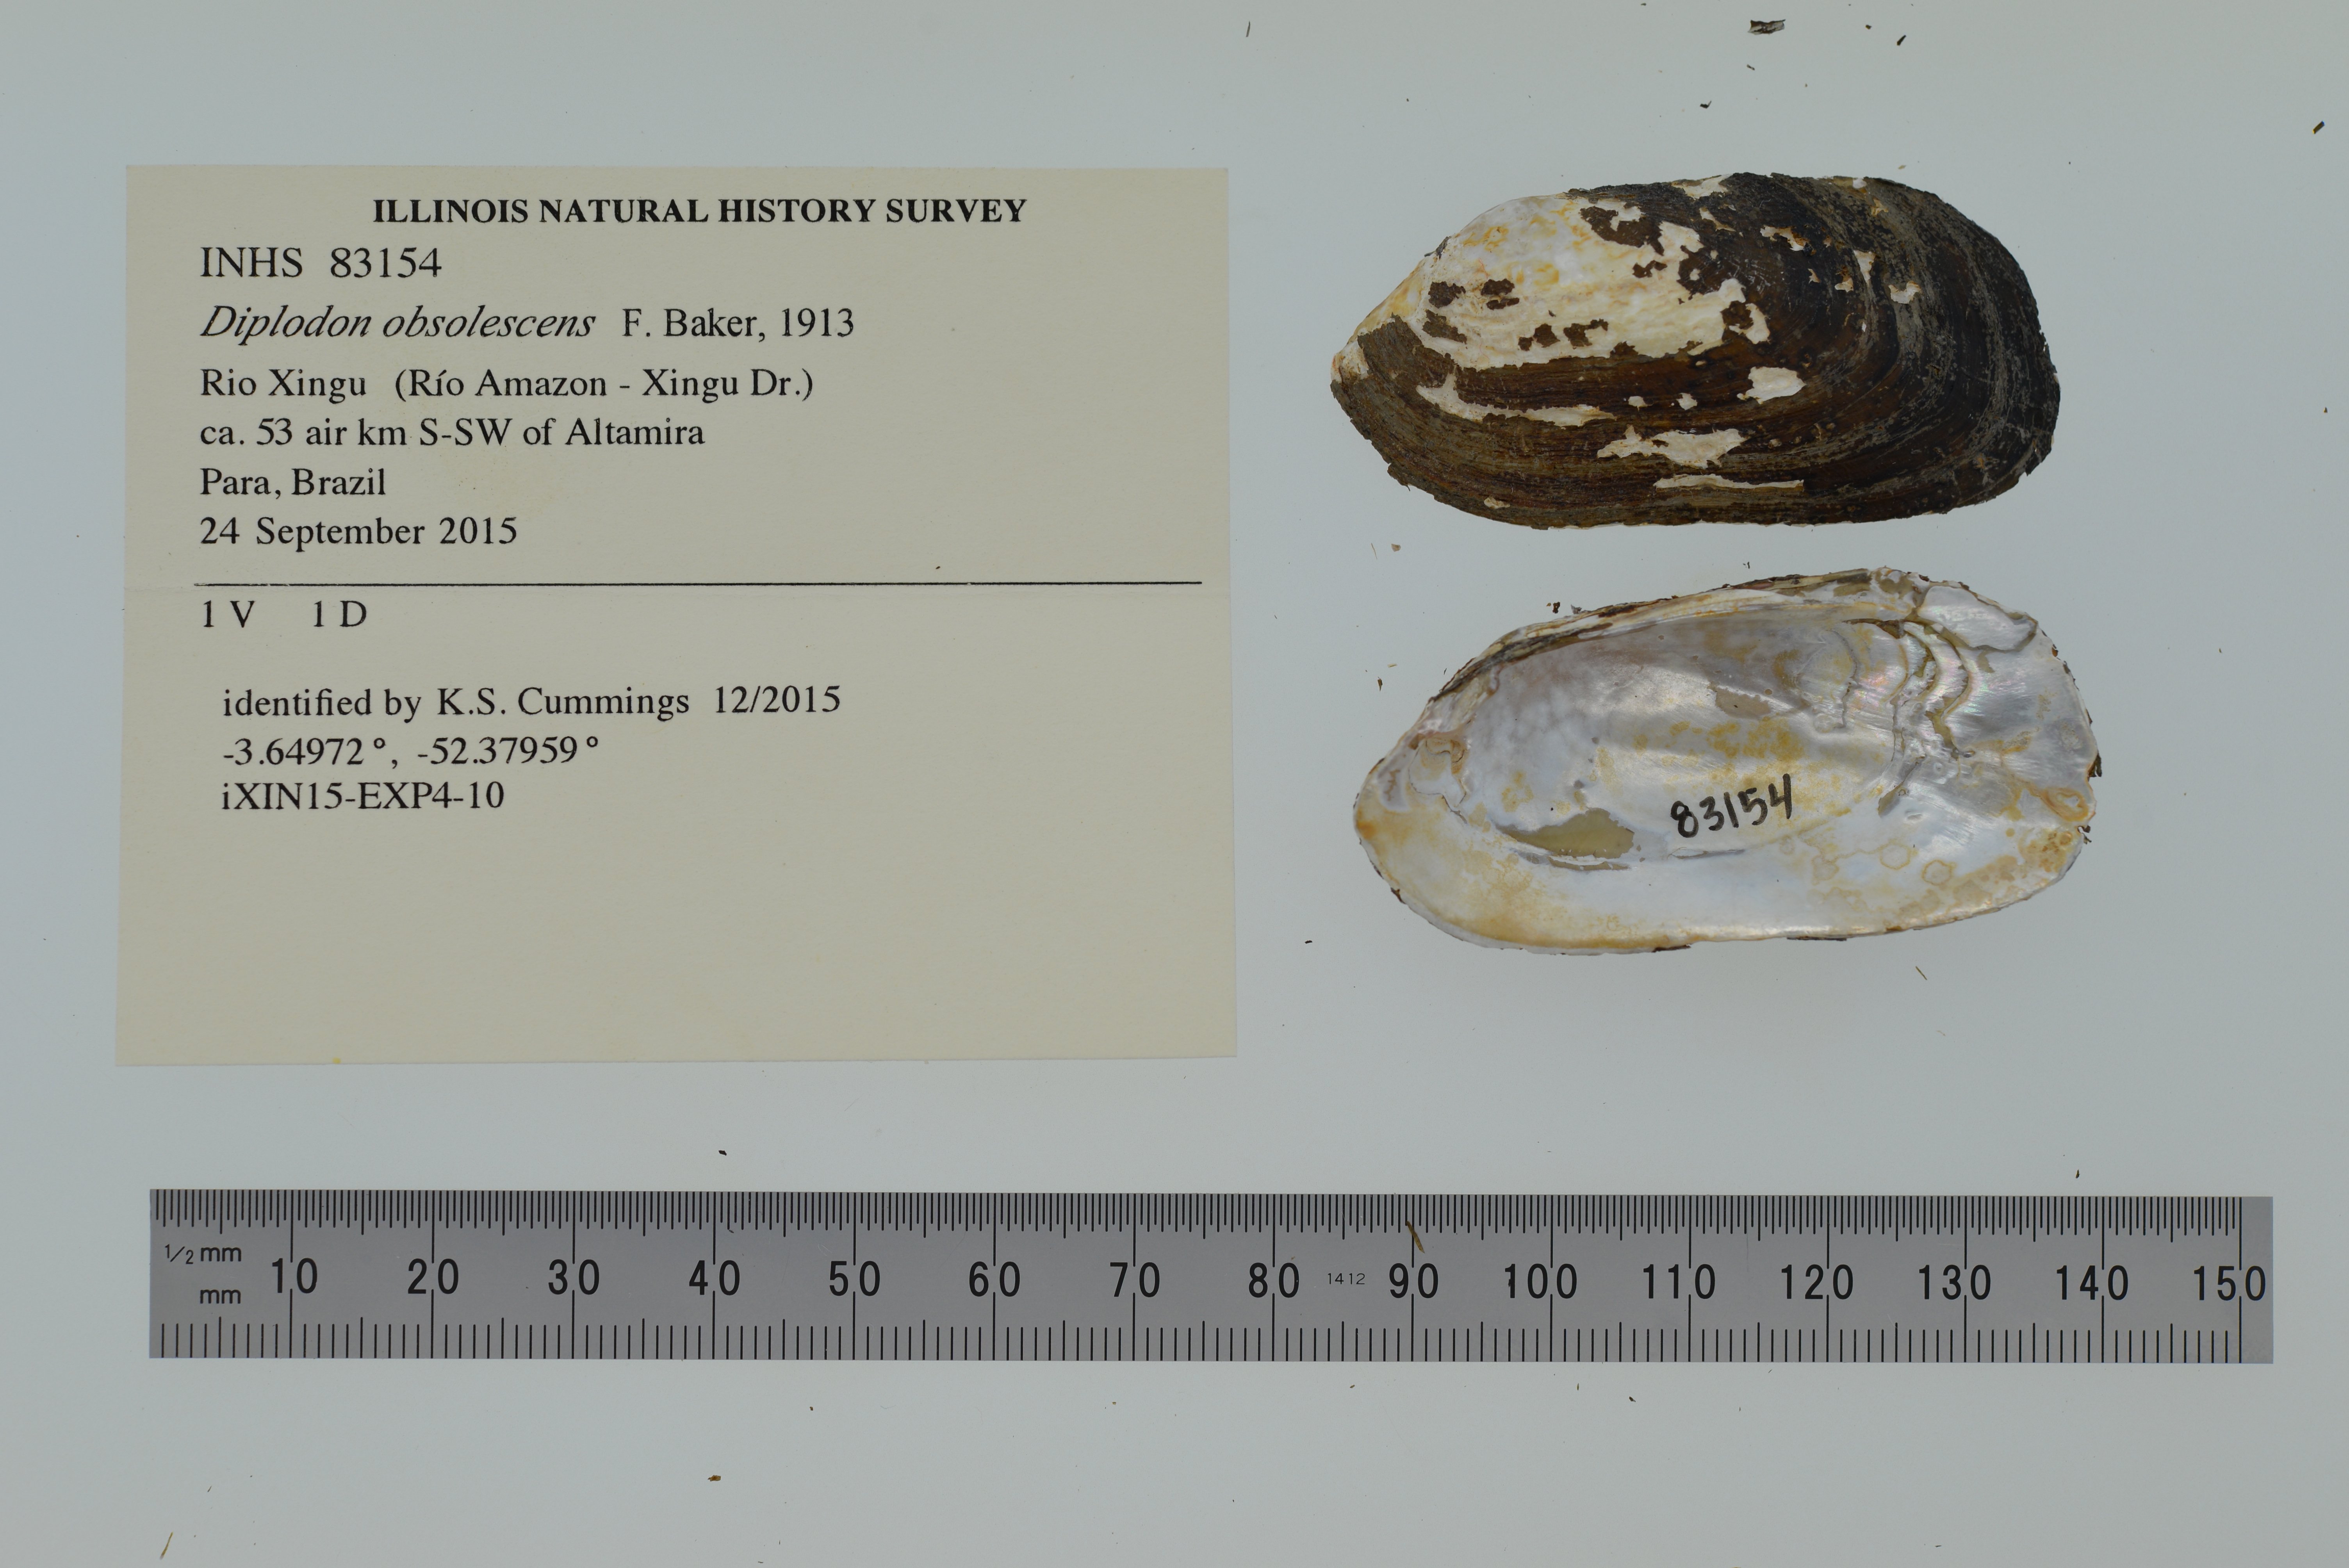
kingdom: Animalia
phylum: Mollusca
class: Bivalvia
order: Unionida
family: Hyriidae
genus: Diplodon
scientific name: Diplodon obsolescens
